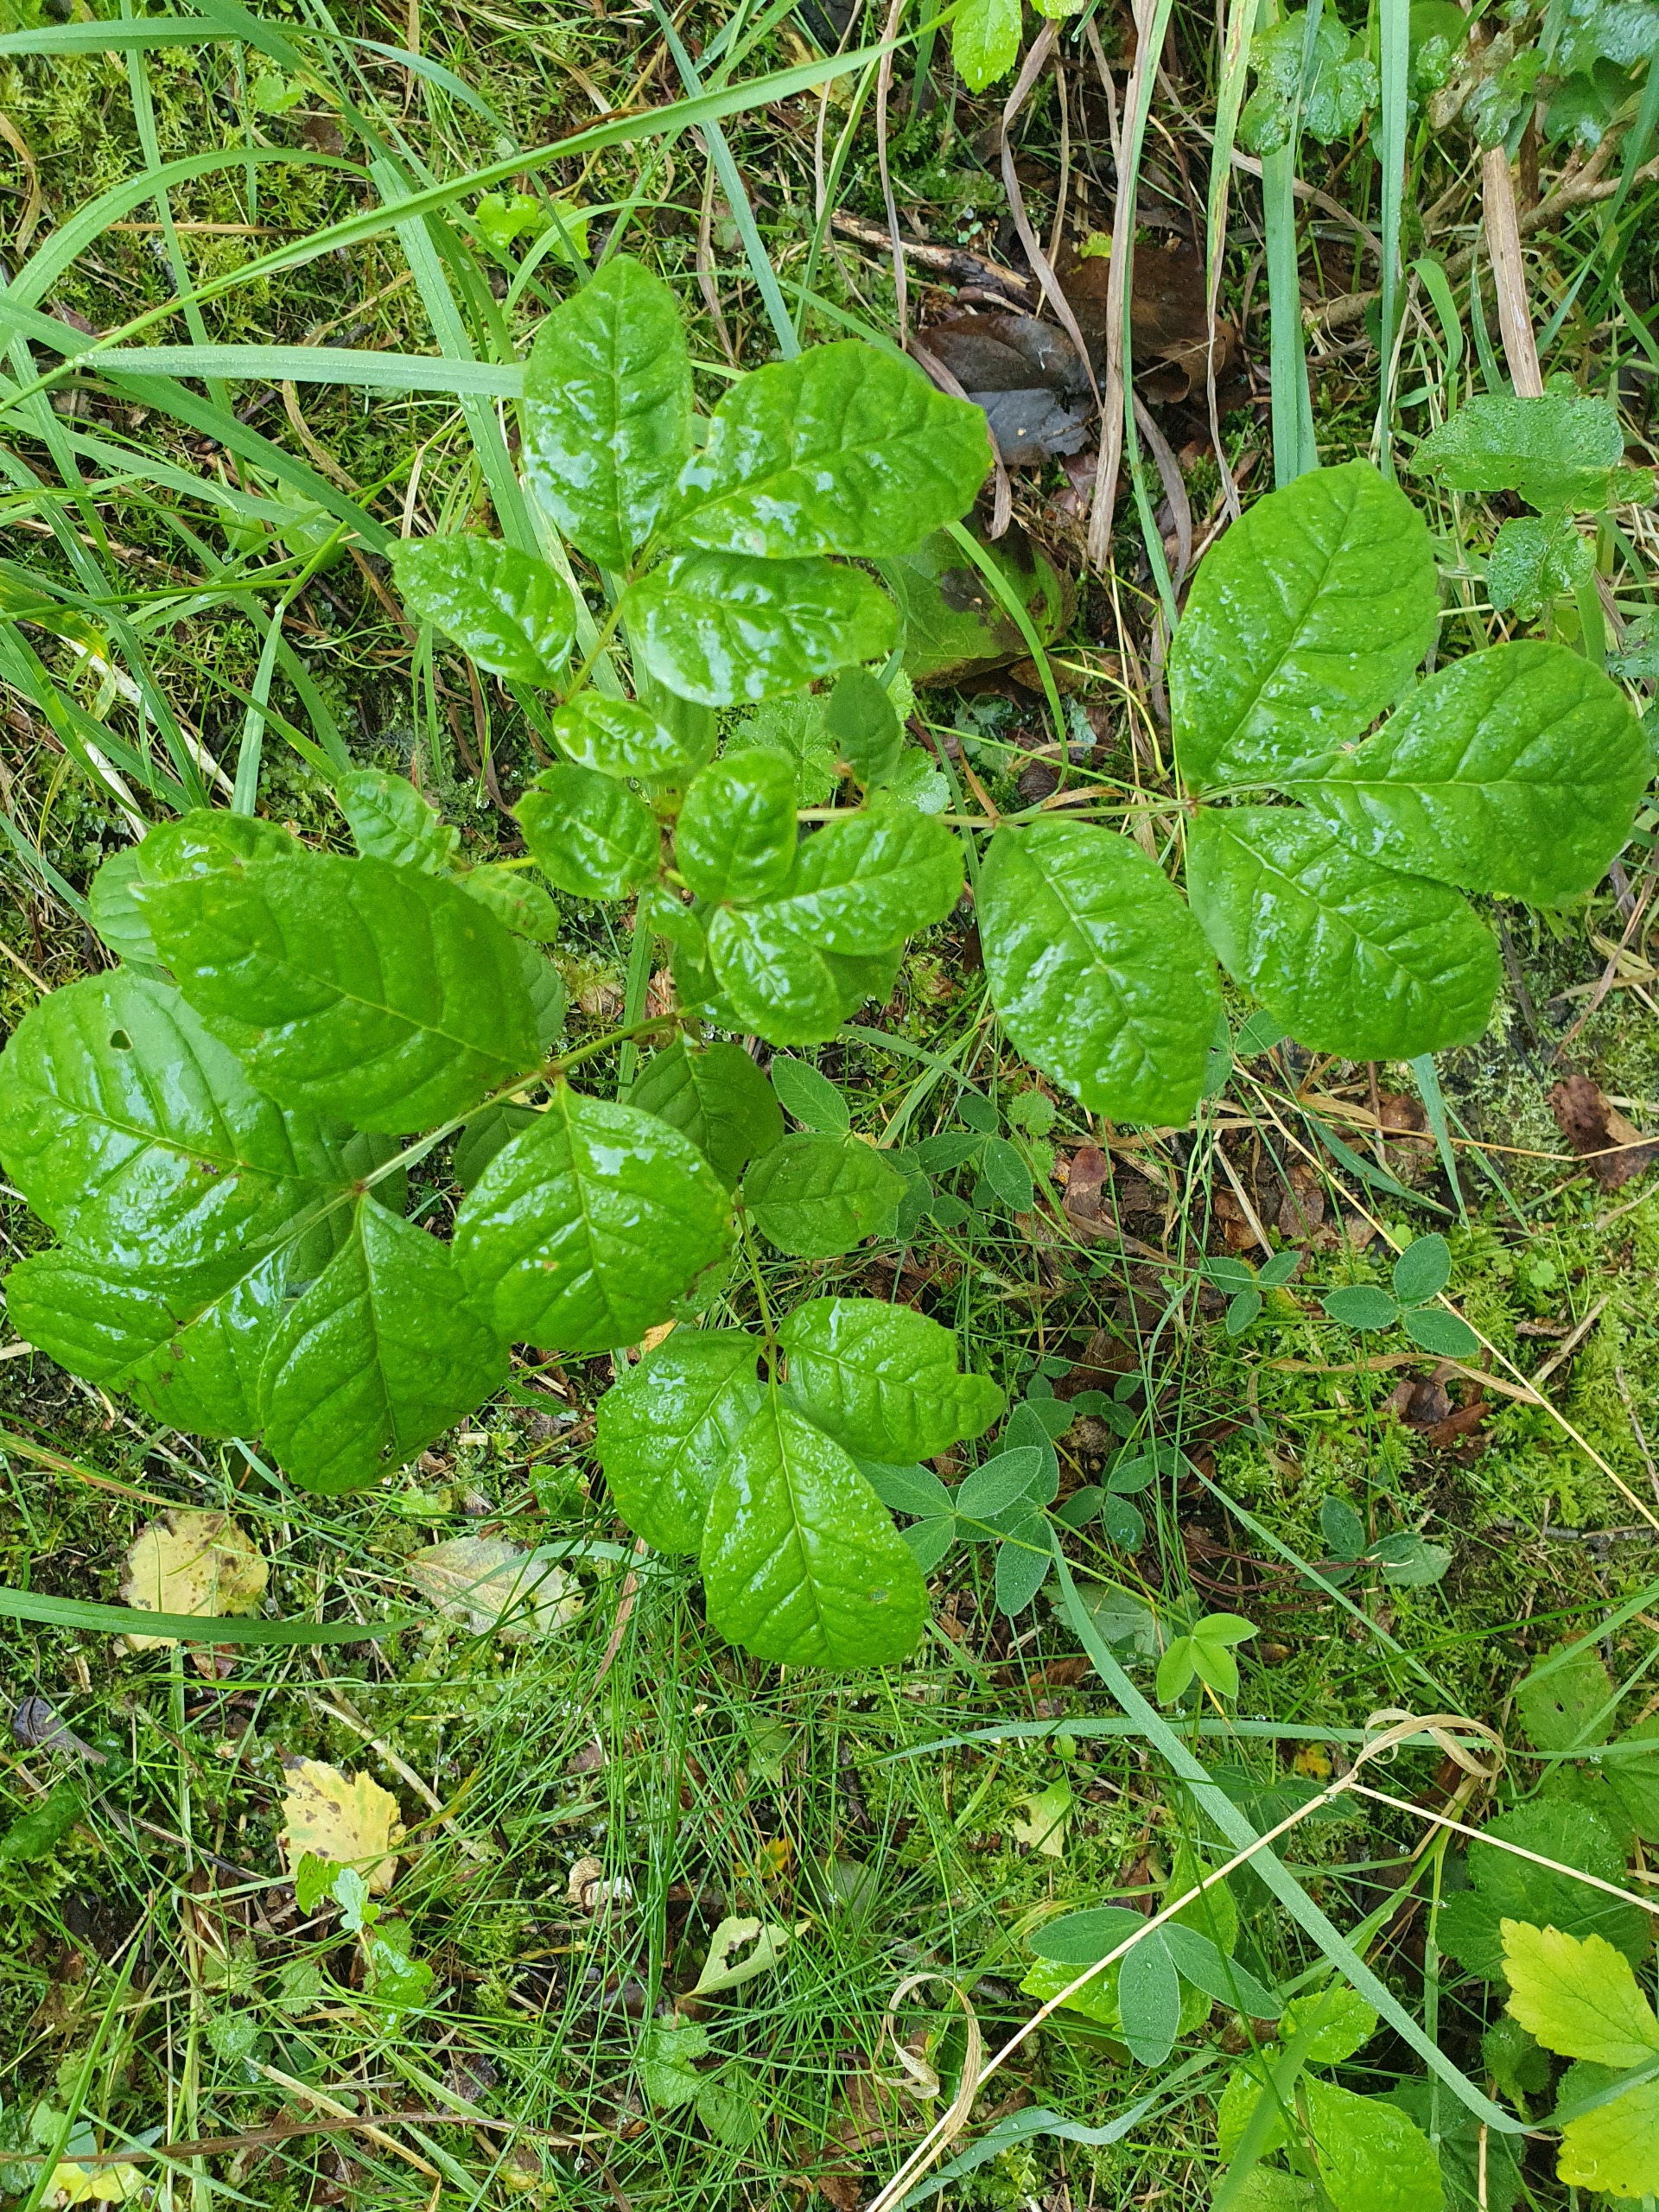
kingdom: Plantae
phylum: Tracheophyta
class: Magnoliopsida
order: Lamiales
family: Oleaceae
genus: Fraxinus
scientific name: Fraxinus excelsior
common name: Ask
